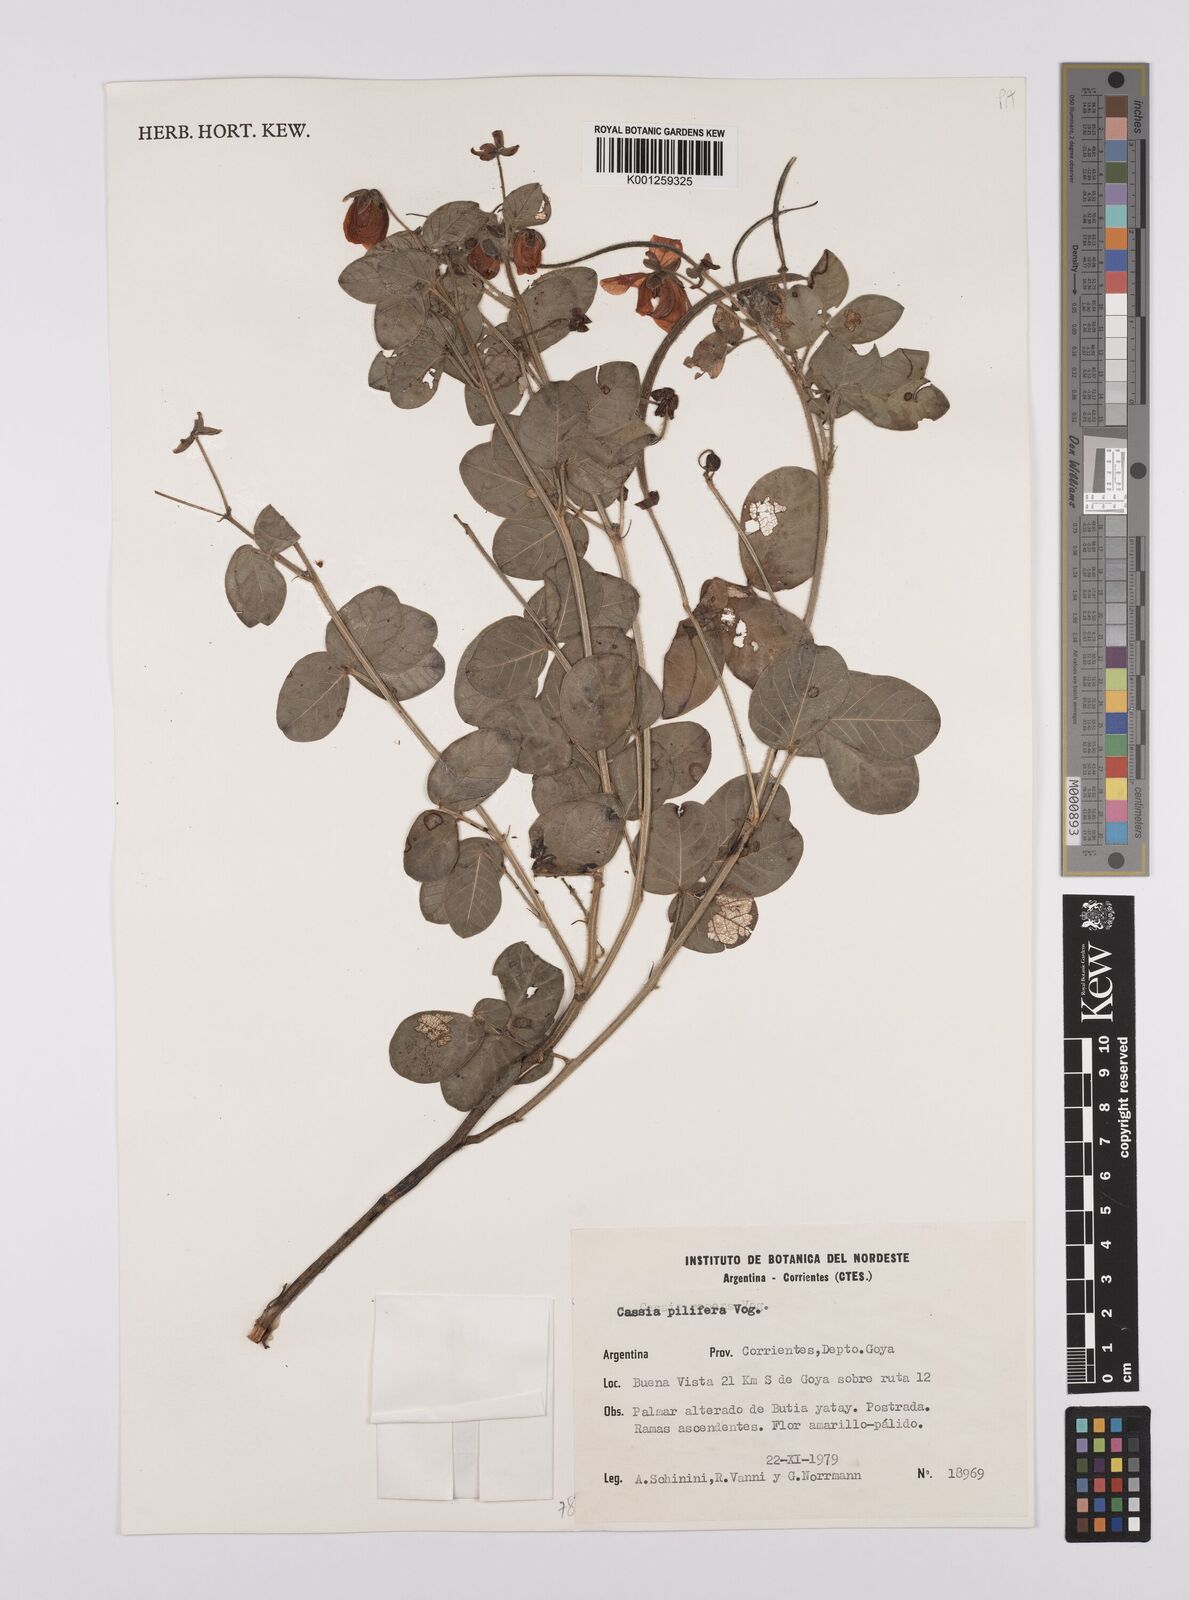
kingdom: Plantae
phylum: Tracheophyta
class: Magnoliopsida
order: Fabales
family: Fabaceae
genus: Senna
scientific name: Senna pilifera
